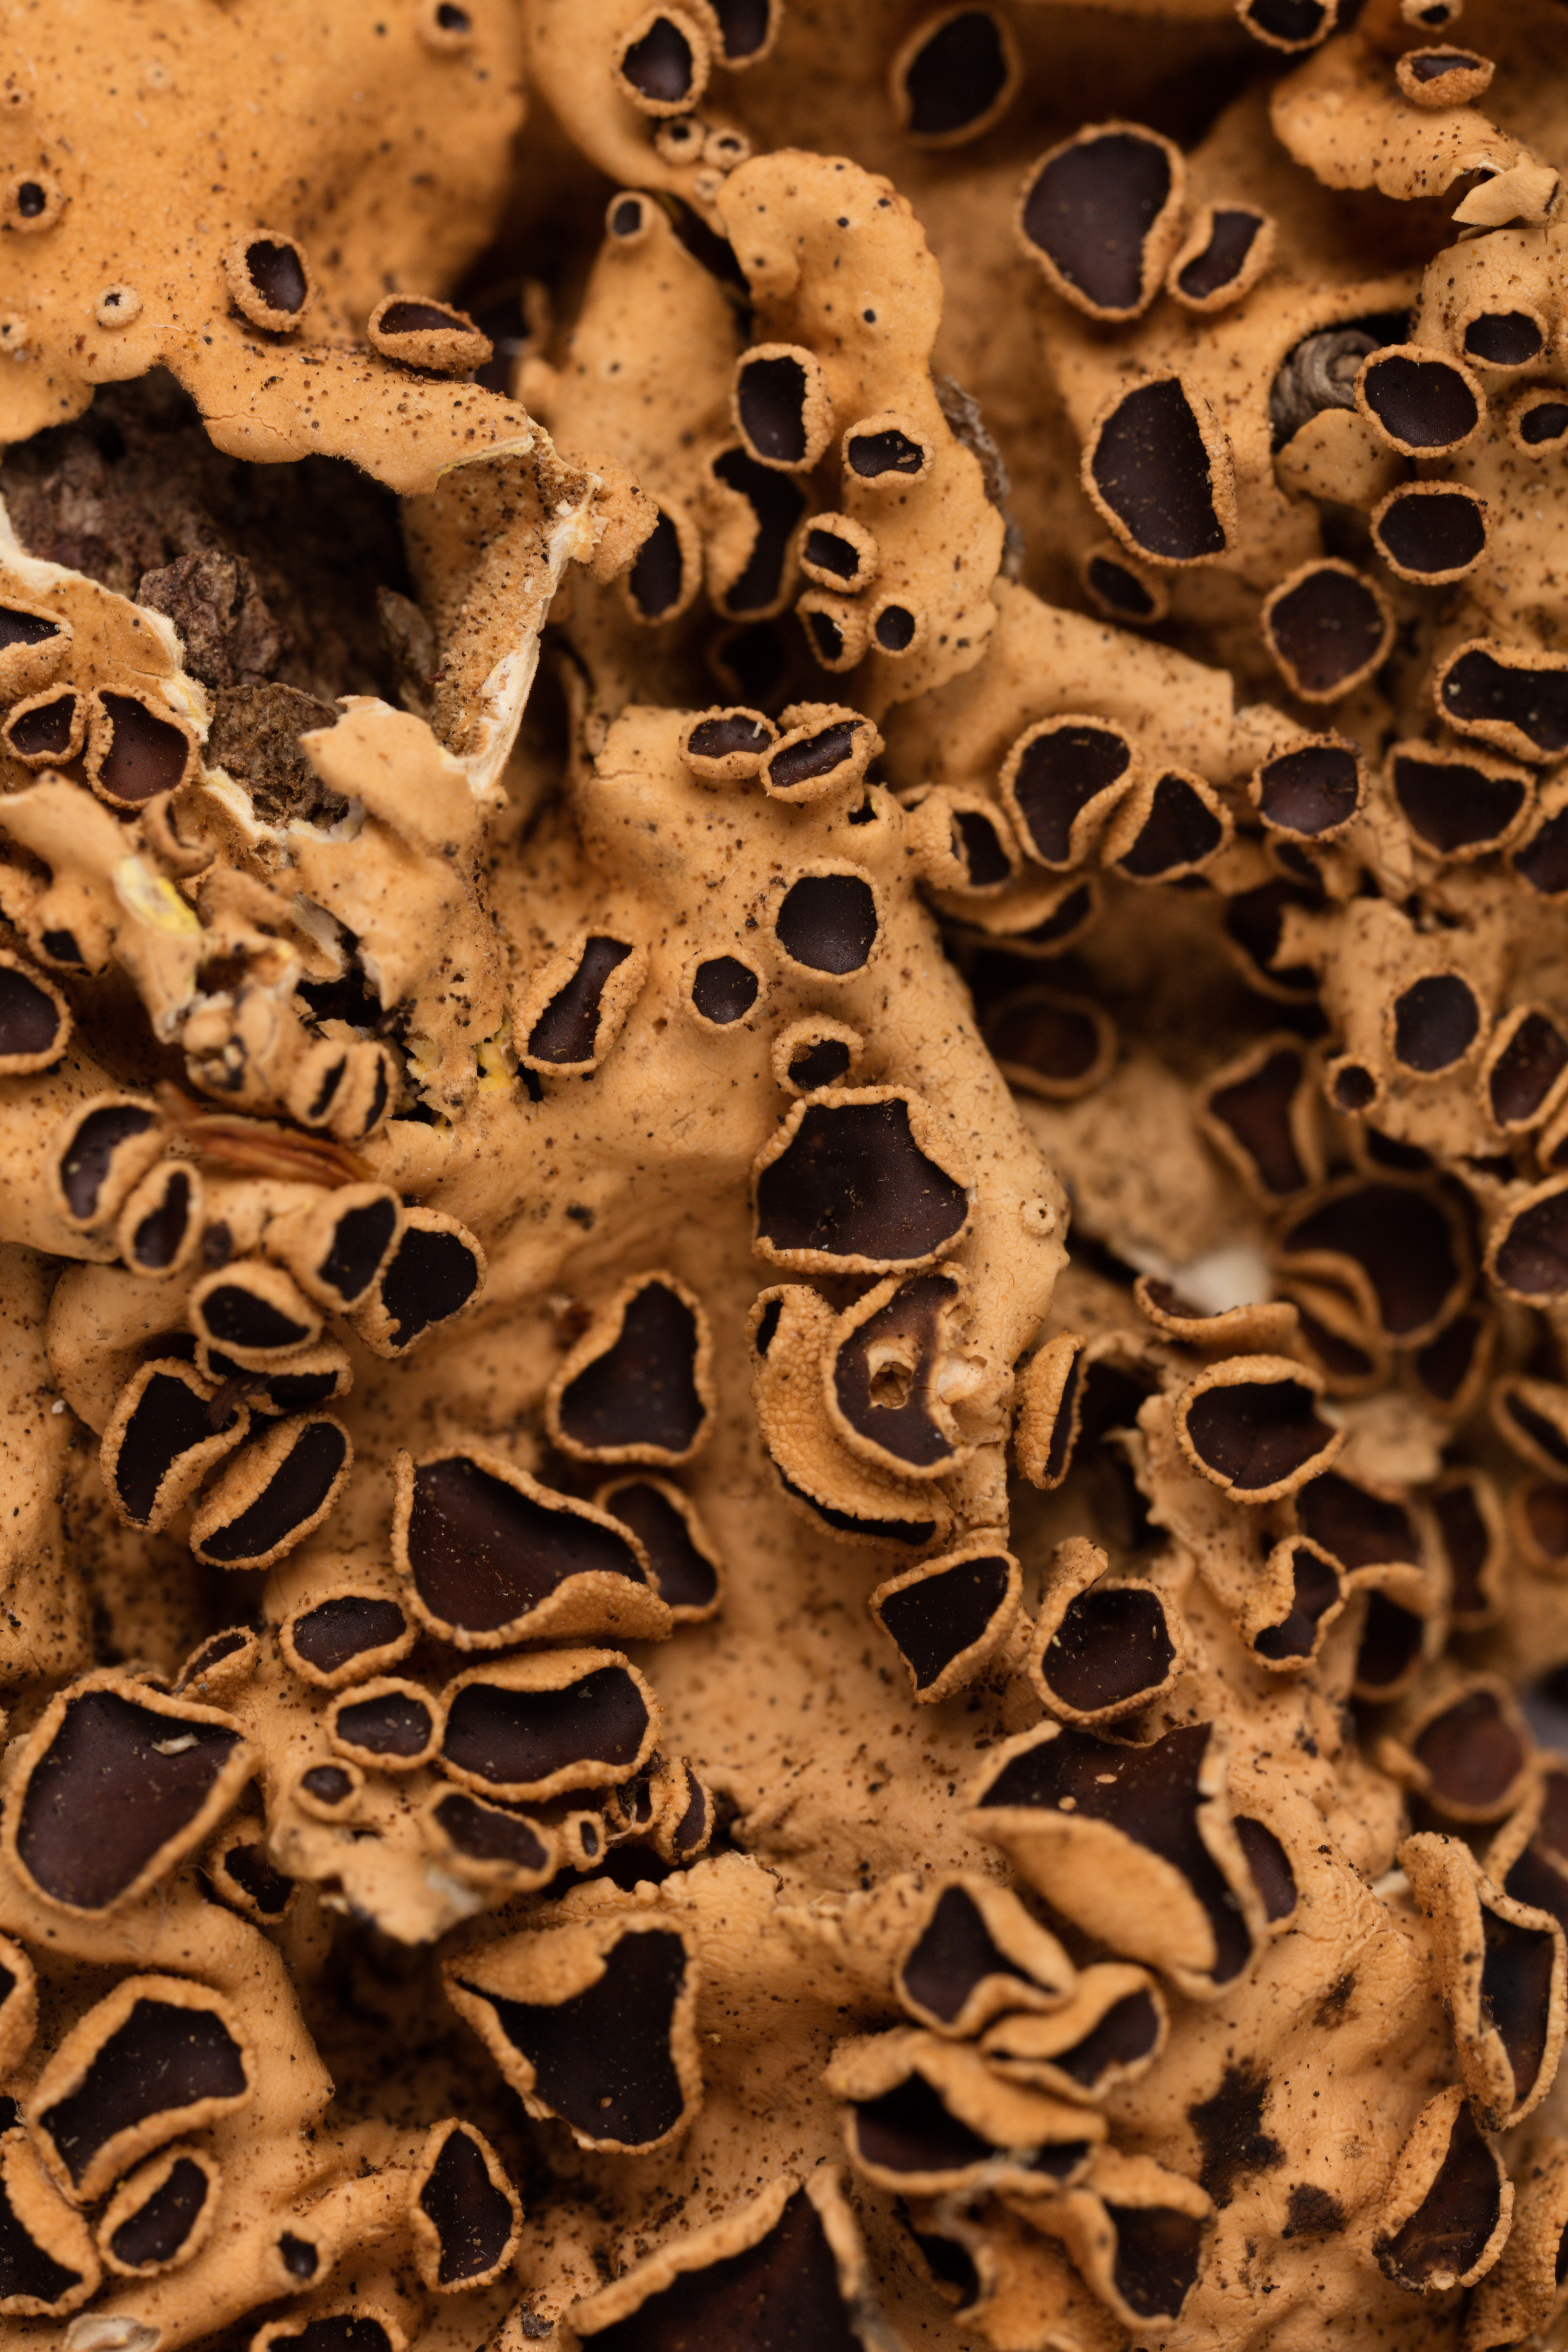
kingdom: Fungi
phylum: Ascomycota
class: Lecanoromycetes
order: Peltigerales
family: Lobariaceae
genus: Podostictina
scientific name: Podostictina vaccina
